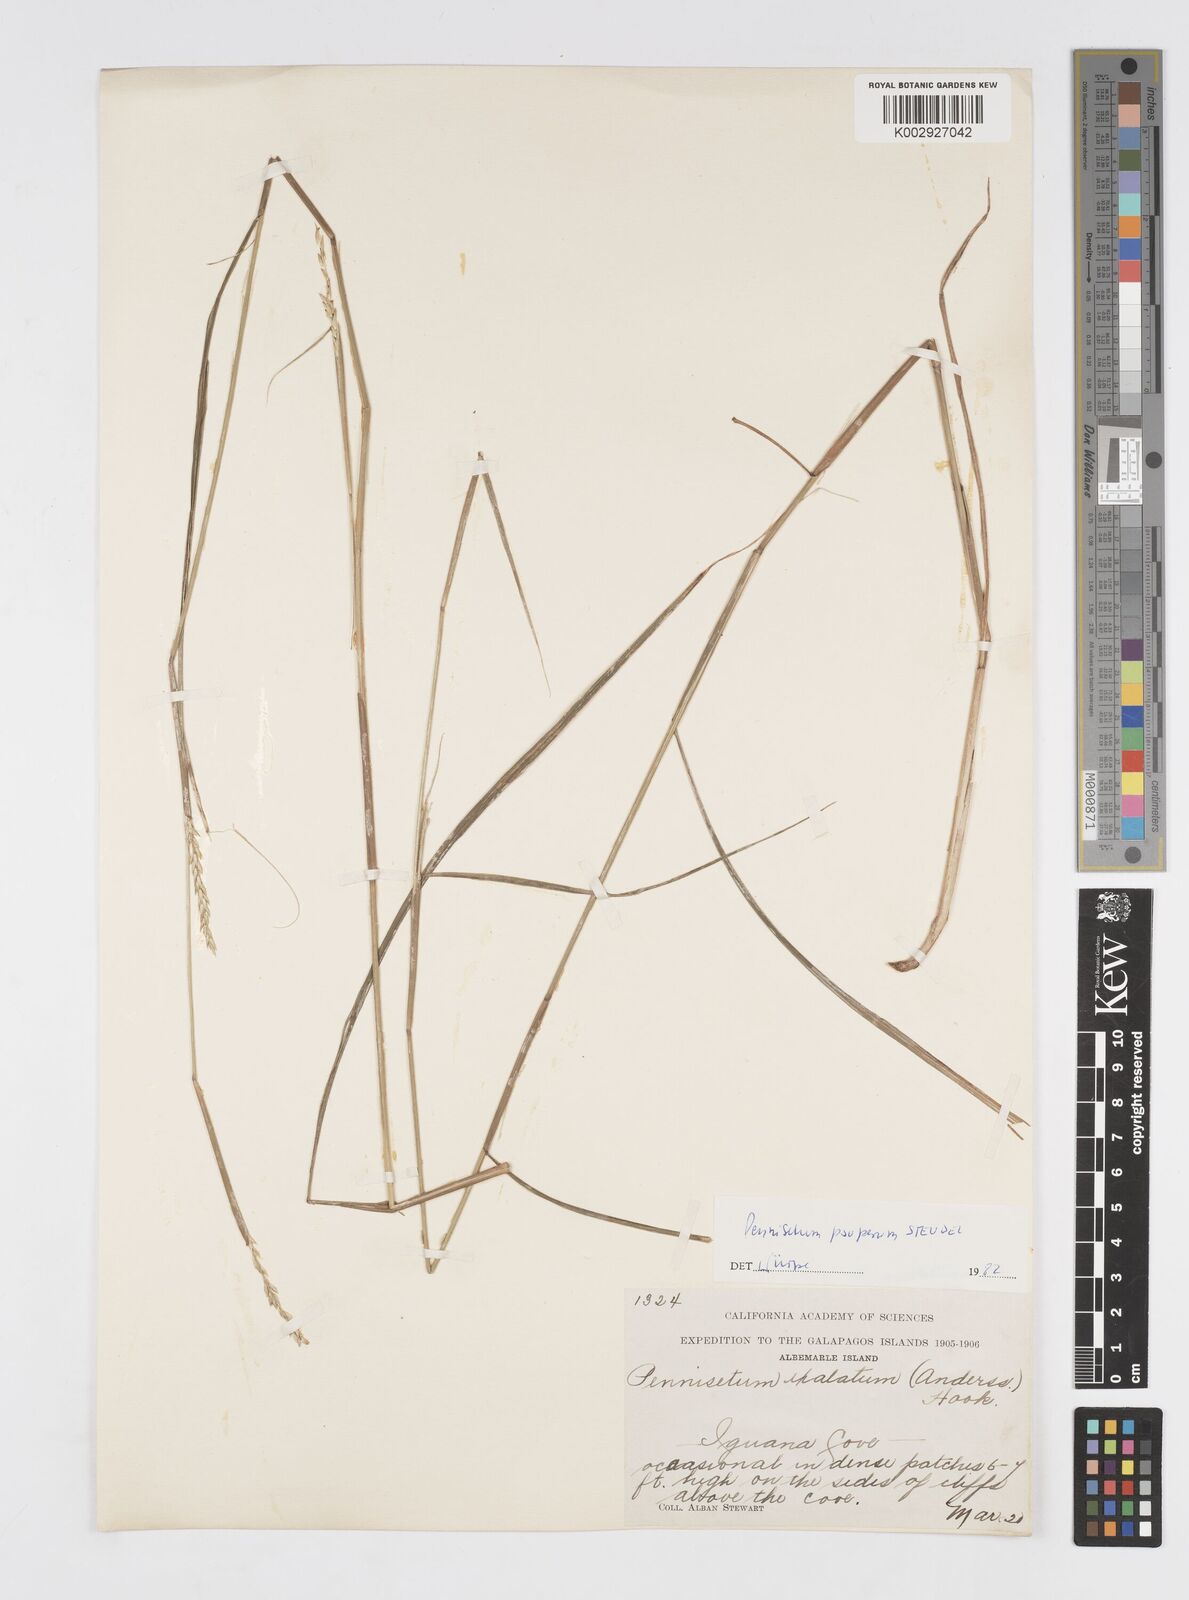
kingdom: Plantae
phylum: Tracheophyta
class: Liliopsida
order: Poales
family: Poaceae
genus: Cenchrus
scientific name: Cenchrus pauper
